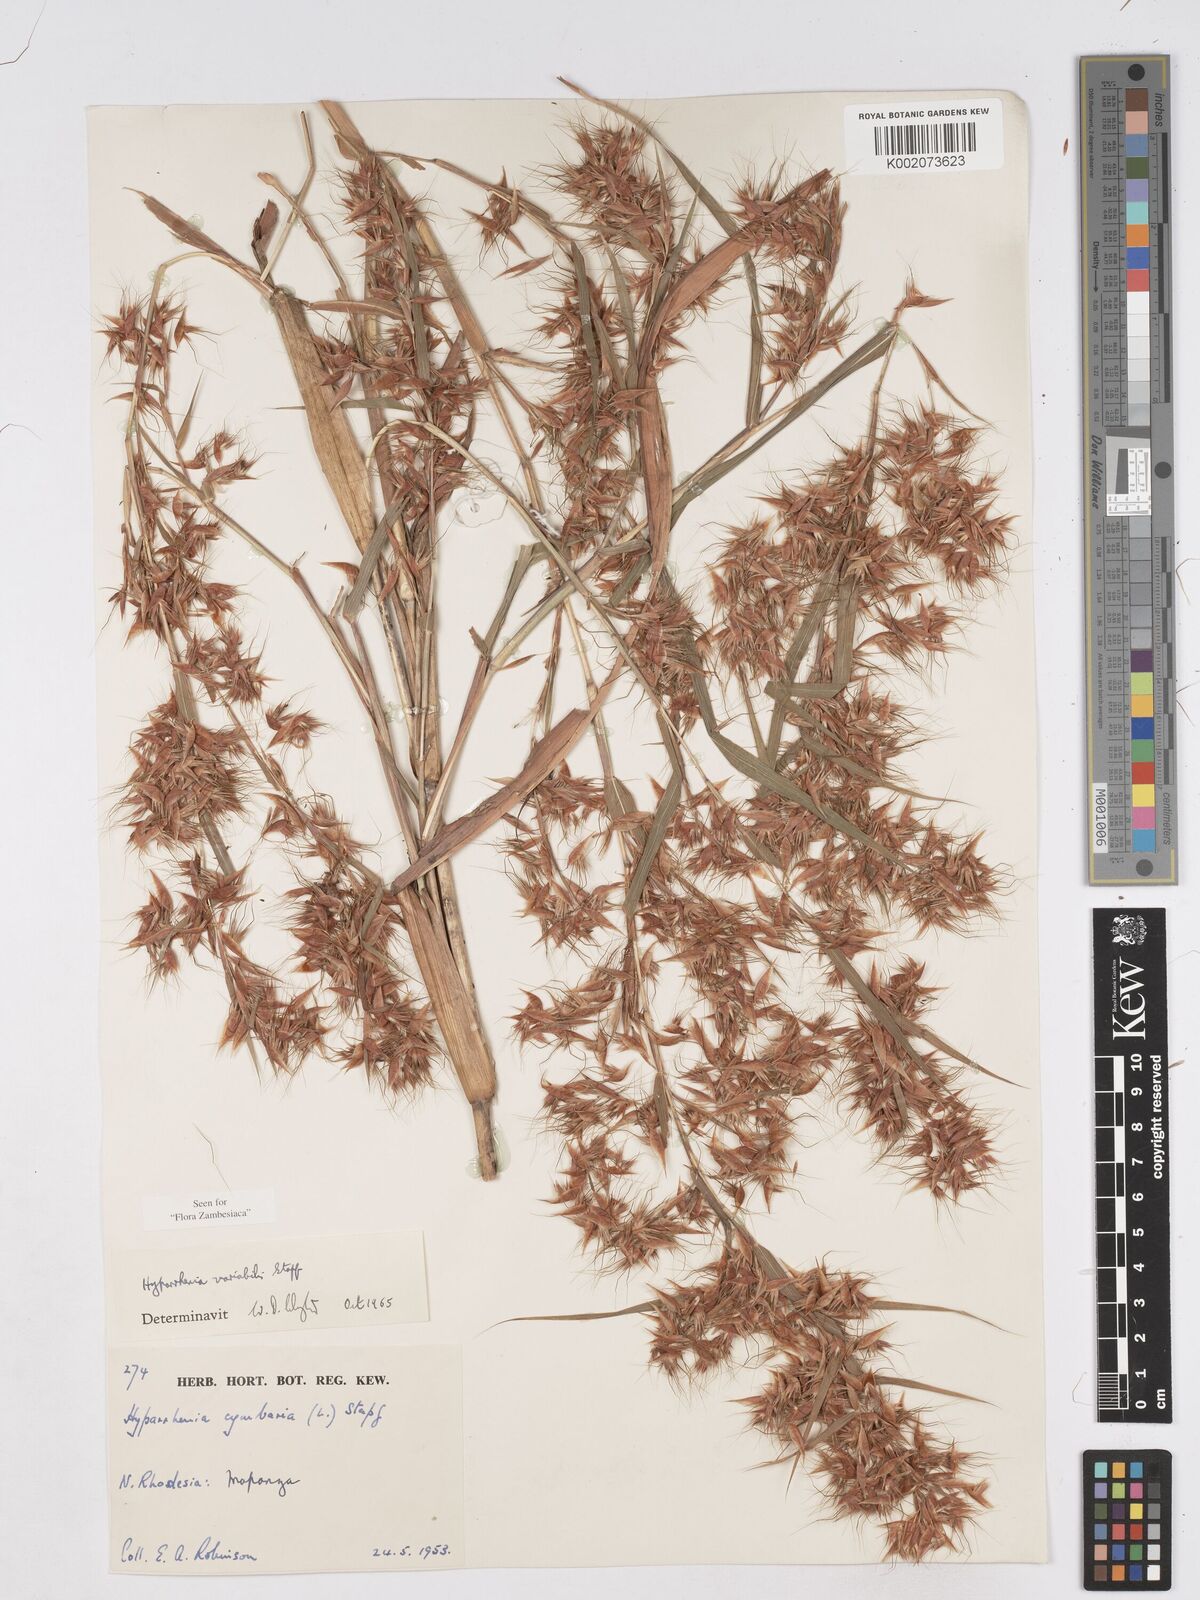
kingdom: Plantae
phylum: Tracheophyta
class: Liliopsida
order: Poales
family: Poaceae
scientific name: Poaceae
